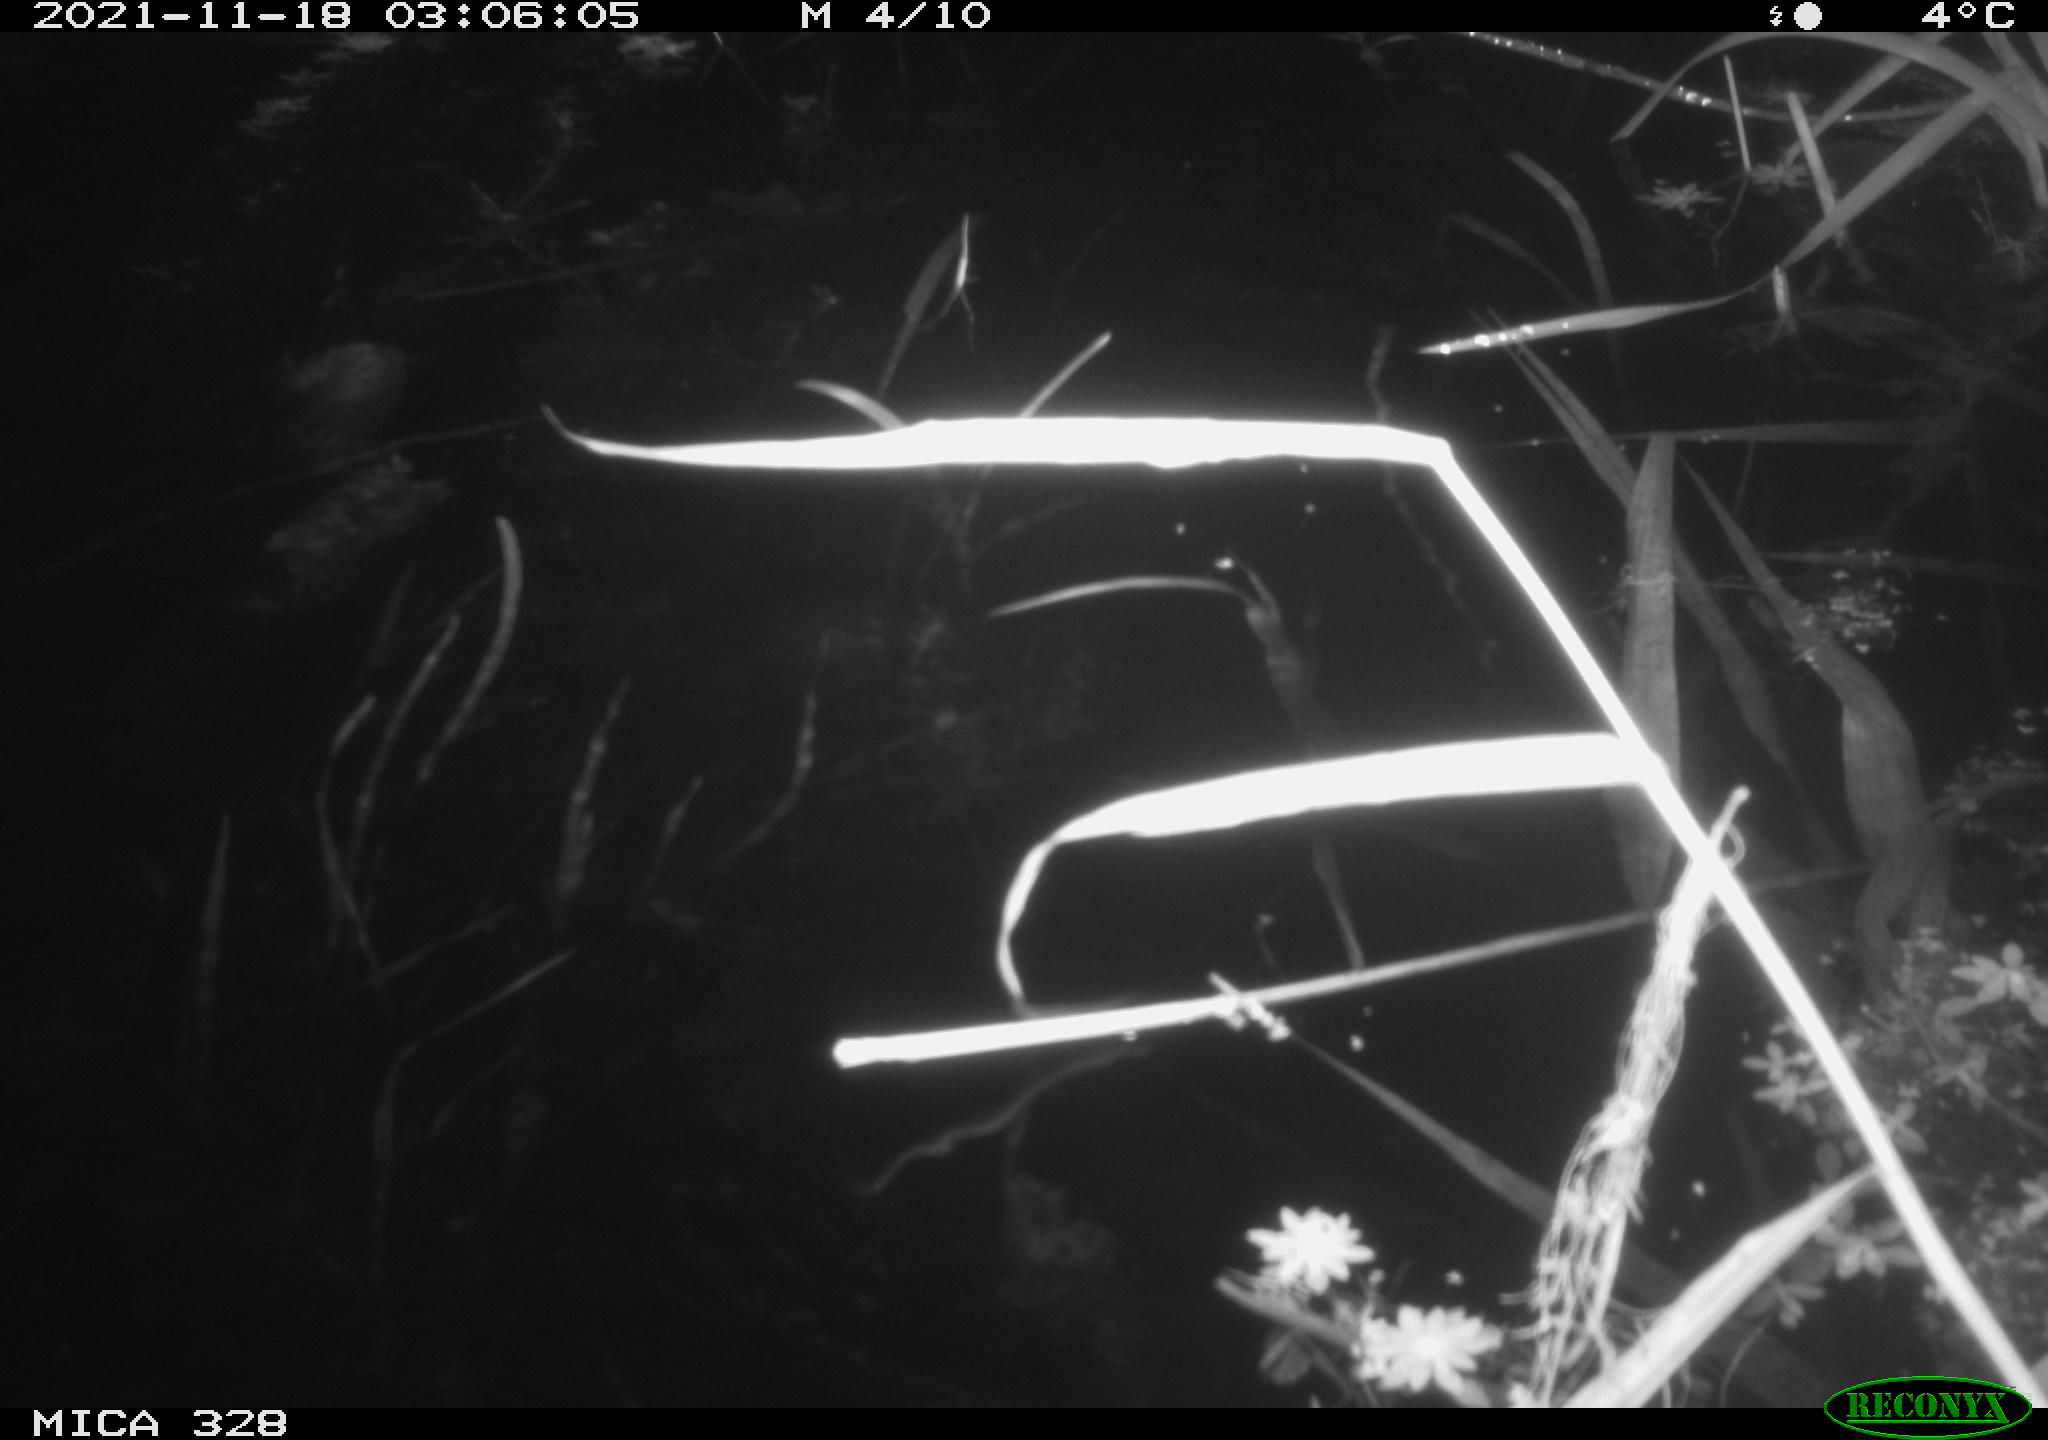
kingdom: Animalia
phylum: Chordata
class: Mammalia
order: Rodentia
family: Cricetidae
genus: Ondatra
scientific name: Ondatra zibethicus
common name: Muskrat
